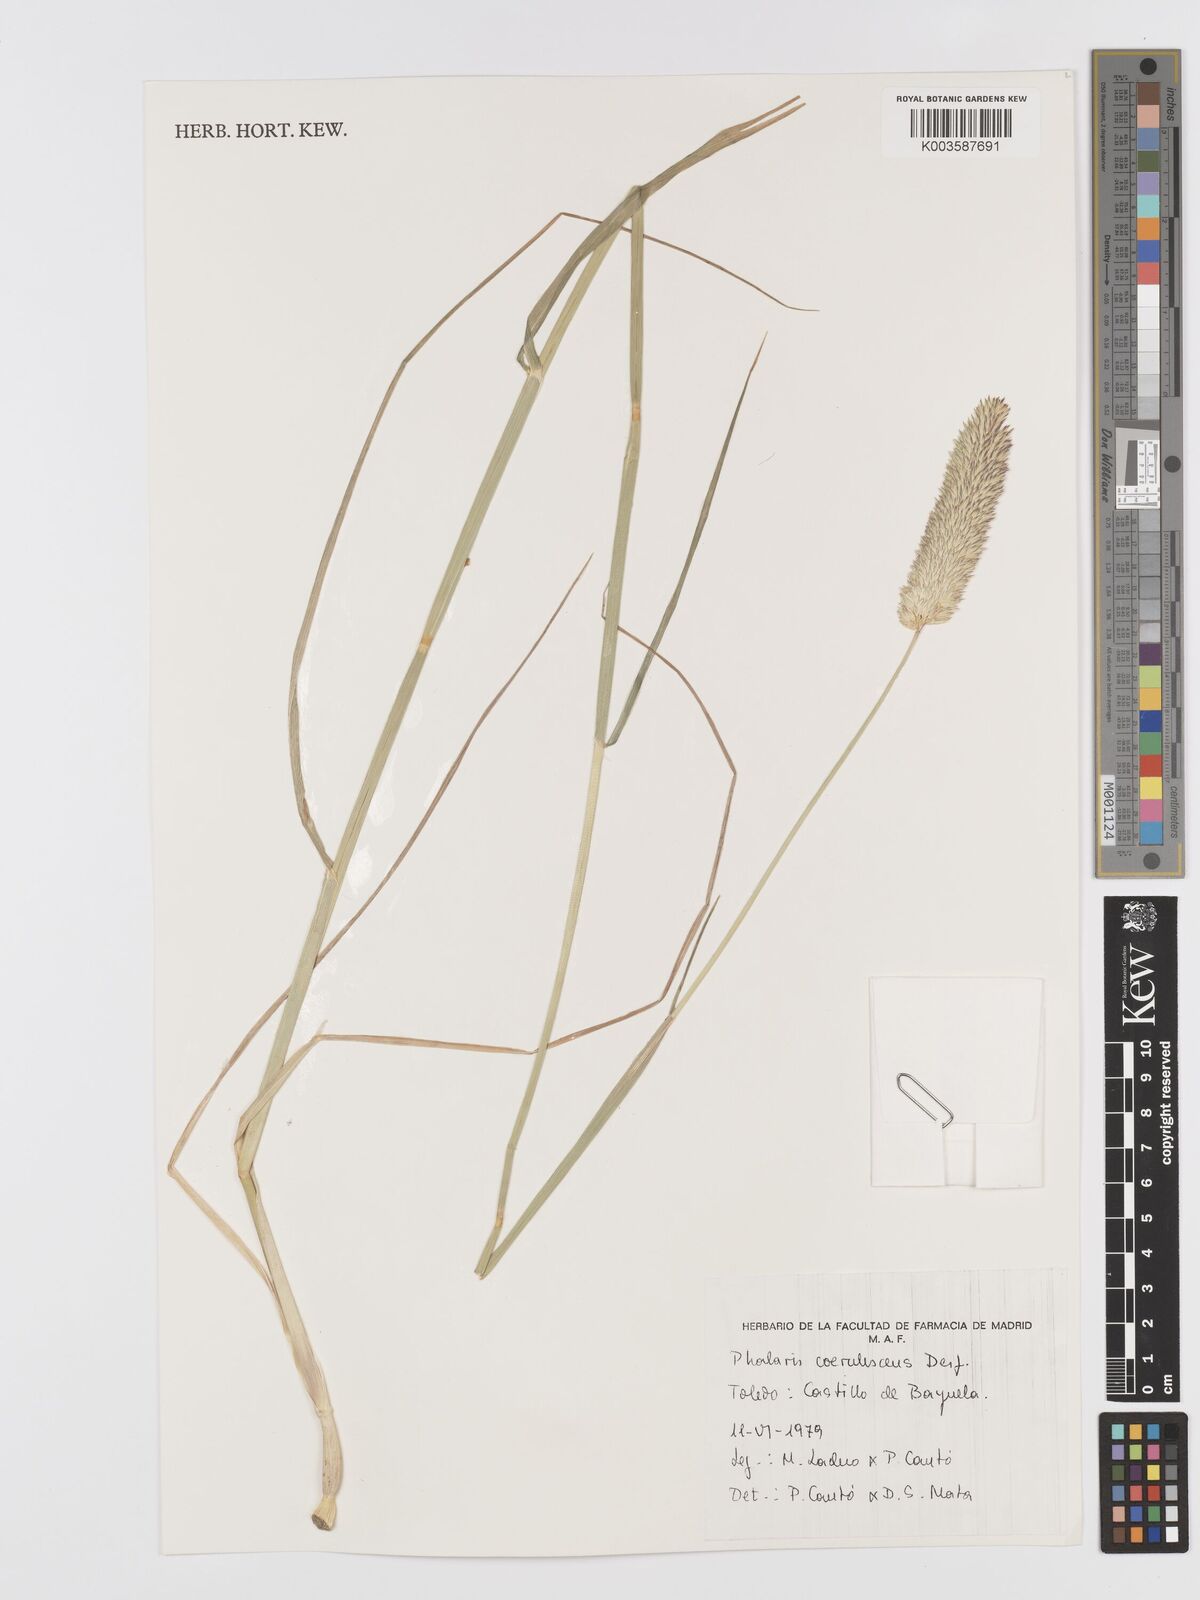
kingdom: Plantae
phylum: Tracheophyta
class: Liliopsida
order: Poales
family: Poaceae
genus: Phalaris
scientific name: Phalaris coerulescens
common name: Sunolgrass
